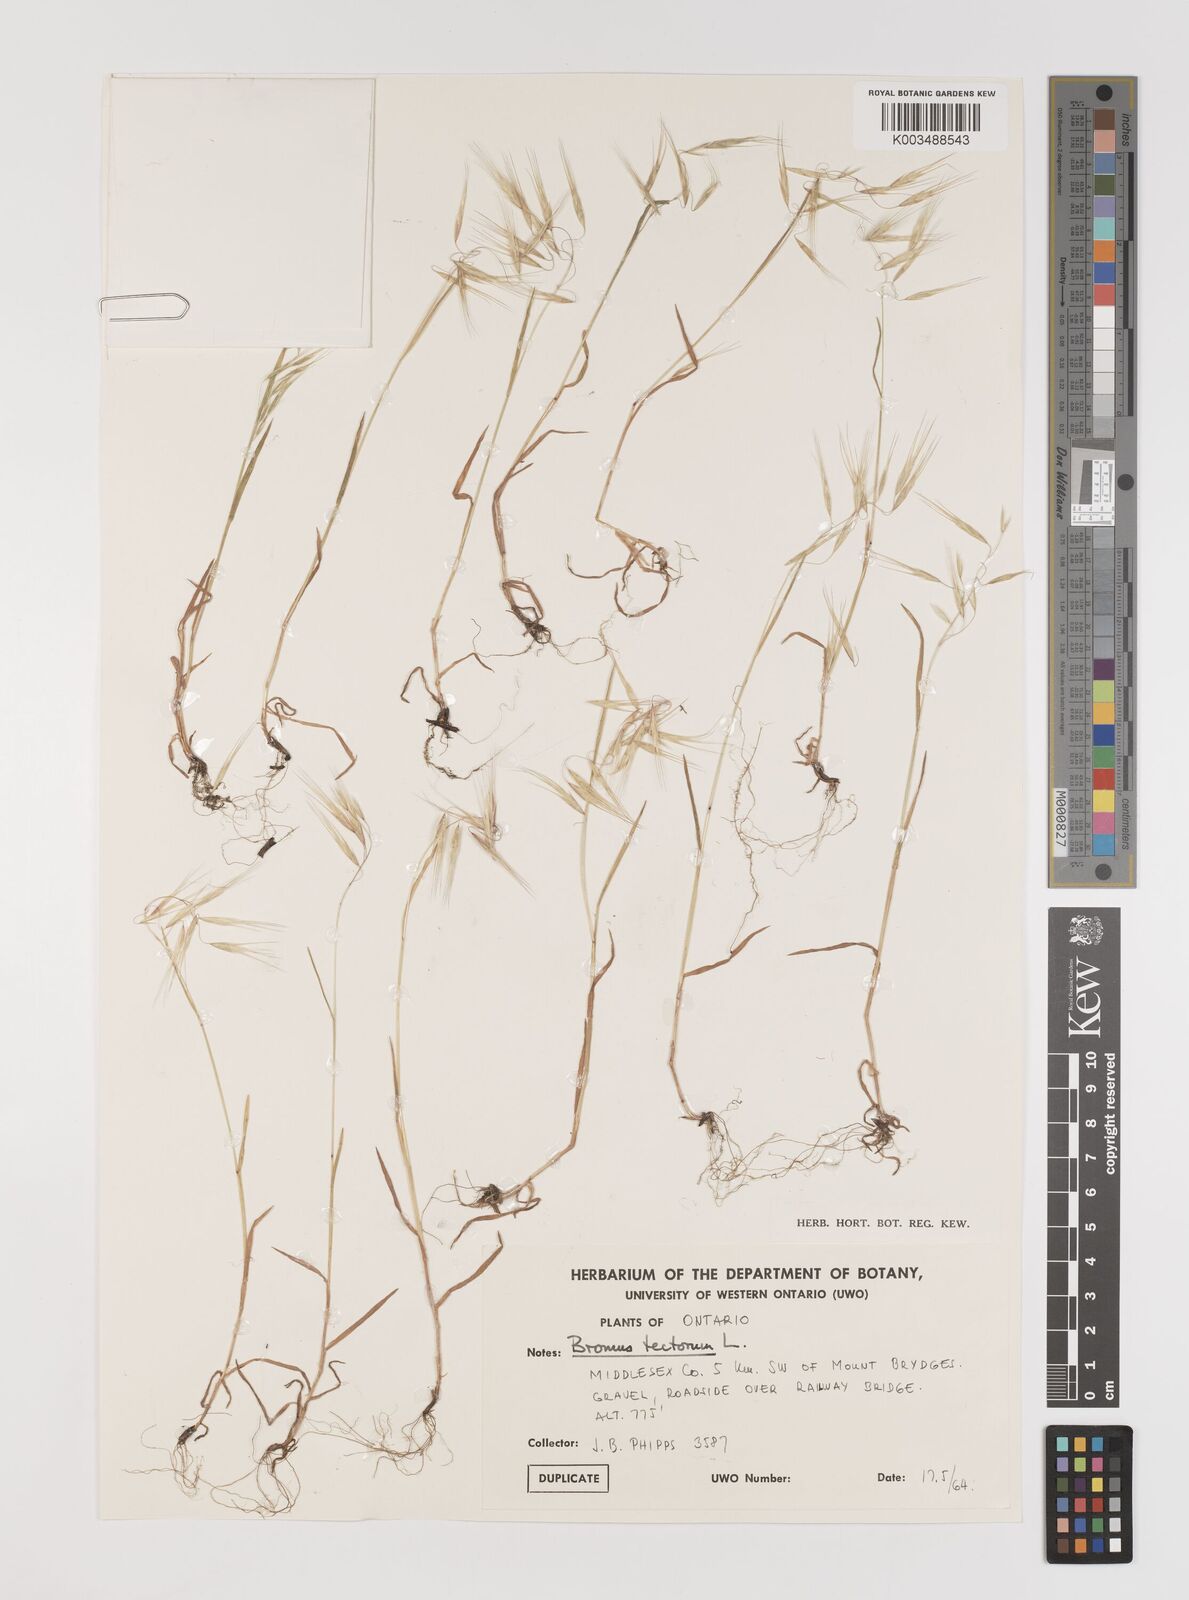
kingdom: Plantae
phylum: Tracheophyta
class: Liliopsida
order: Poales
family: Poaceae
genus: Bromus
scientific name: Bromus tectorum
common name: Cheatgrass
